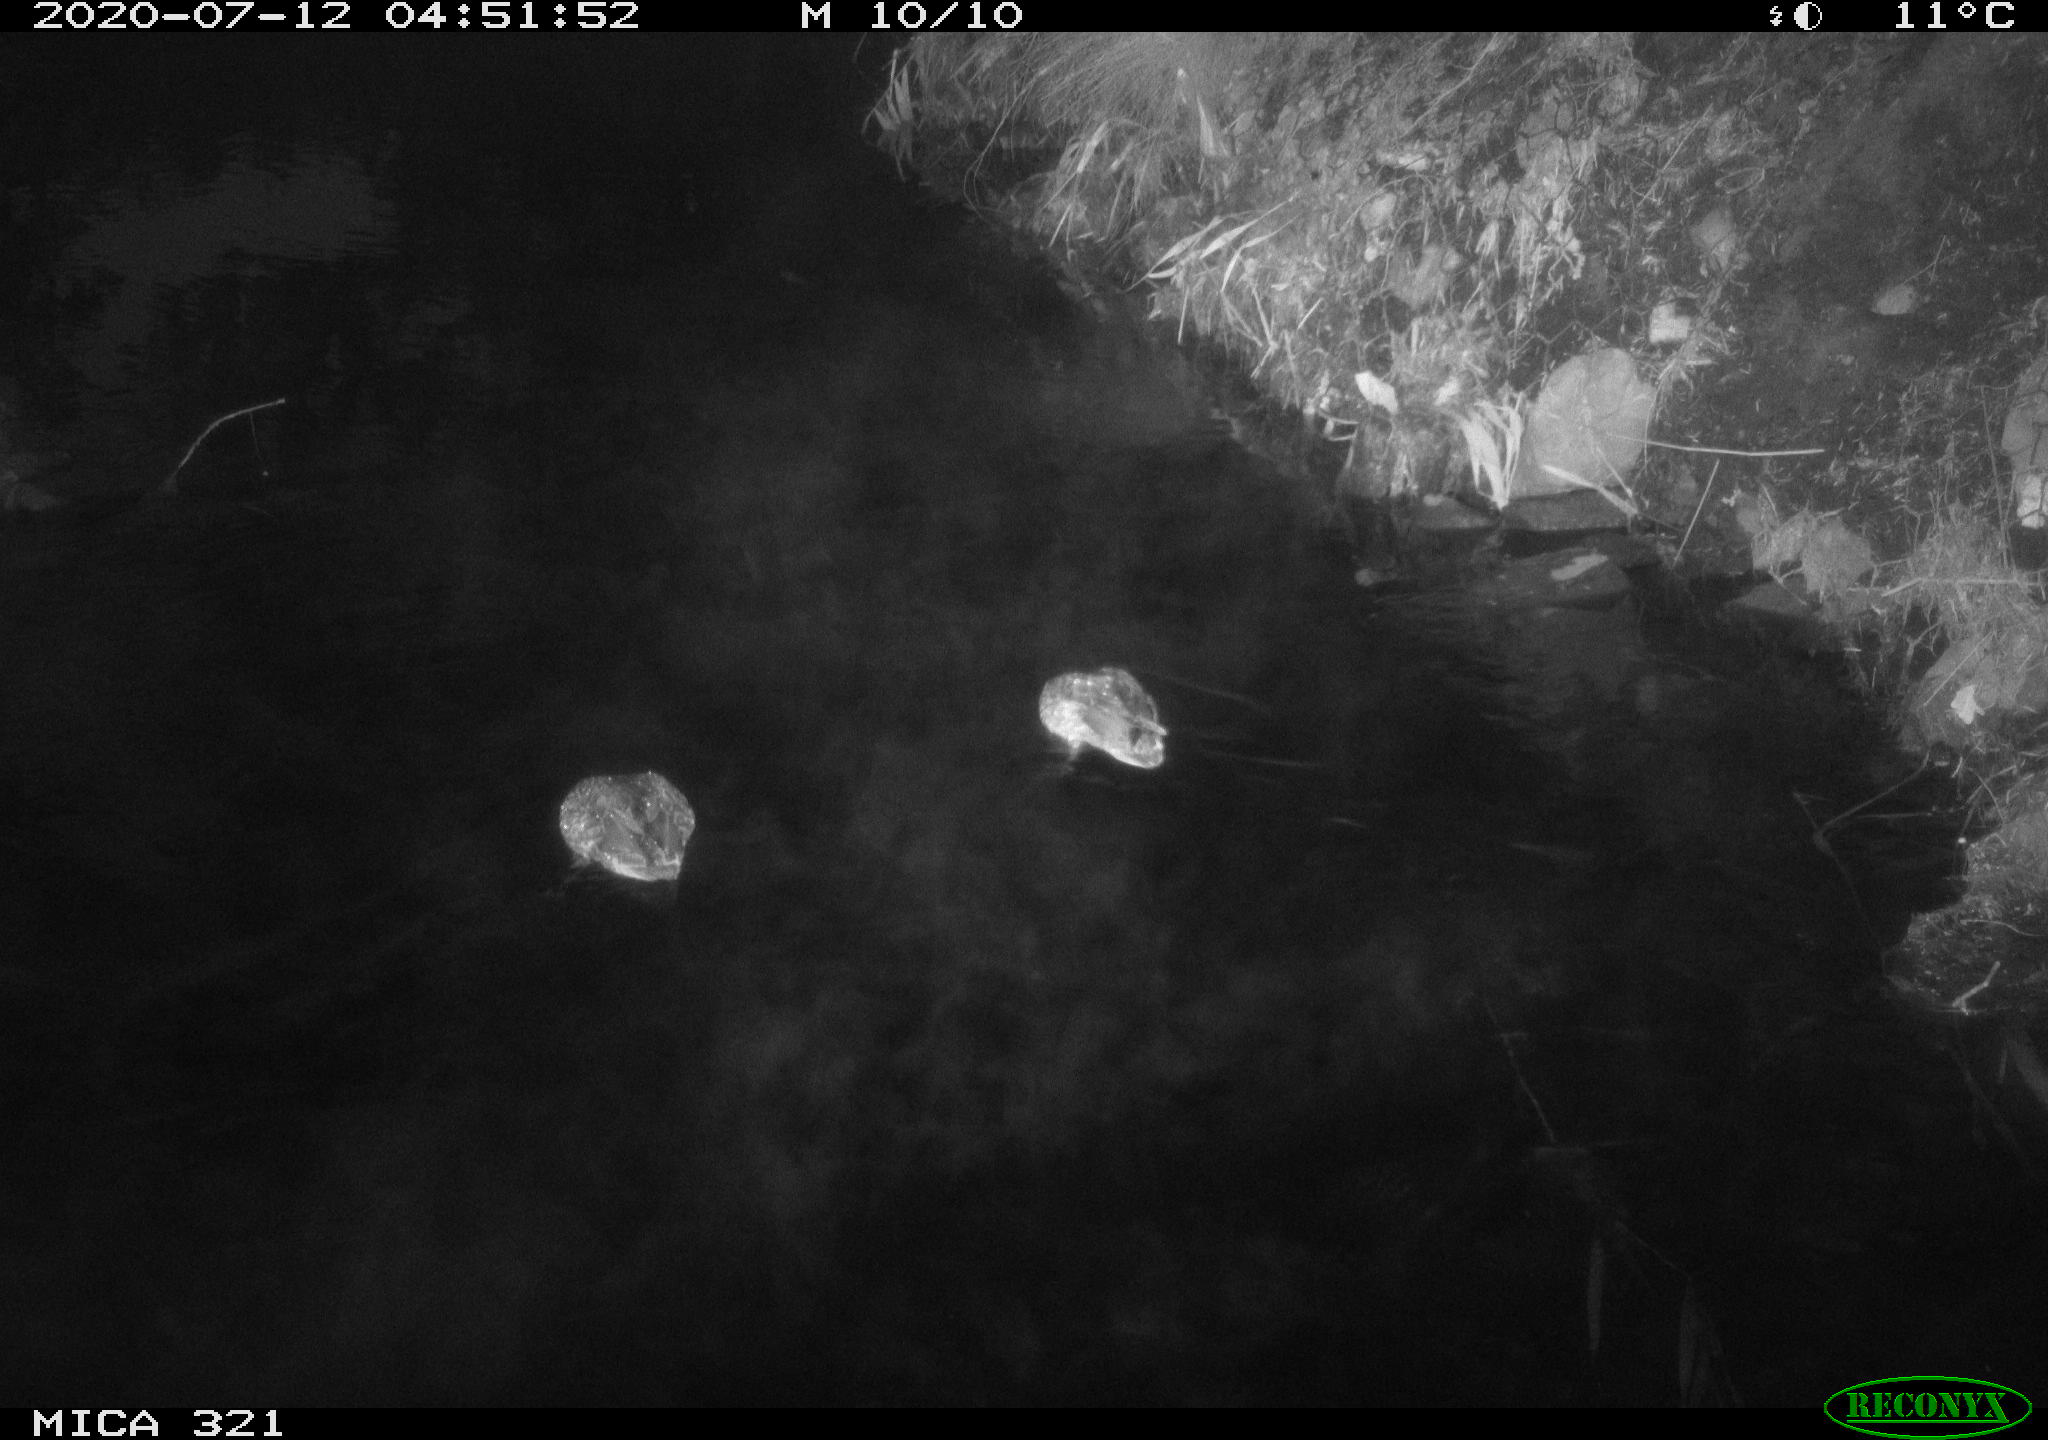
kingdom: Animalia
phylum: Chordata
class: Aves
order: Anseriformes
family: Anatidae
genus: Anas
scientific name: Anas platyrhynchos
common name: Mallard
